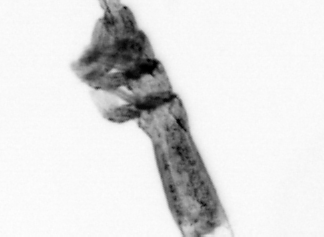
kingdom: Animalia
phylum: Arthropoda
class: Copepoda
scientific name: Copepoda
